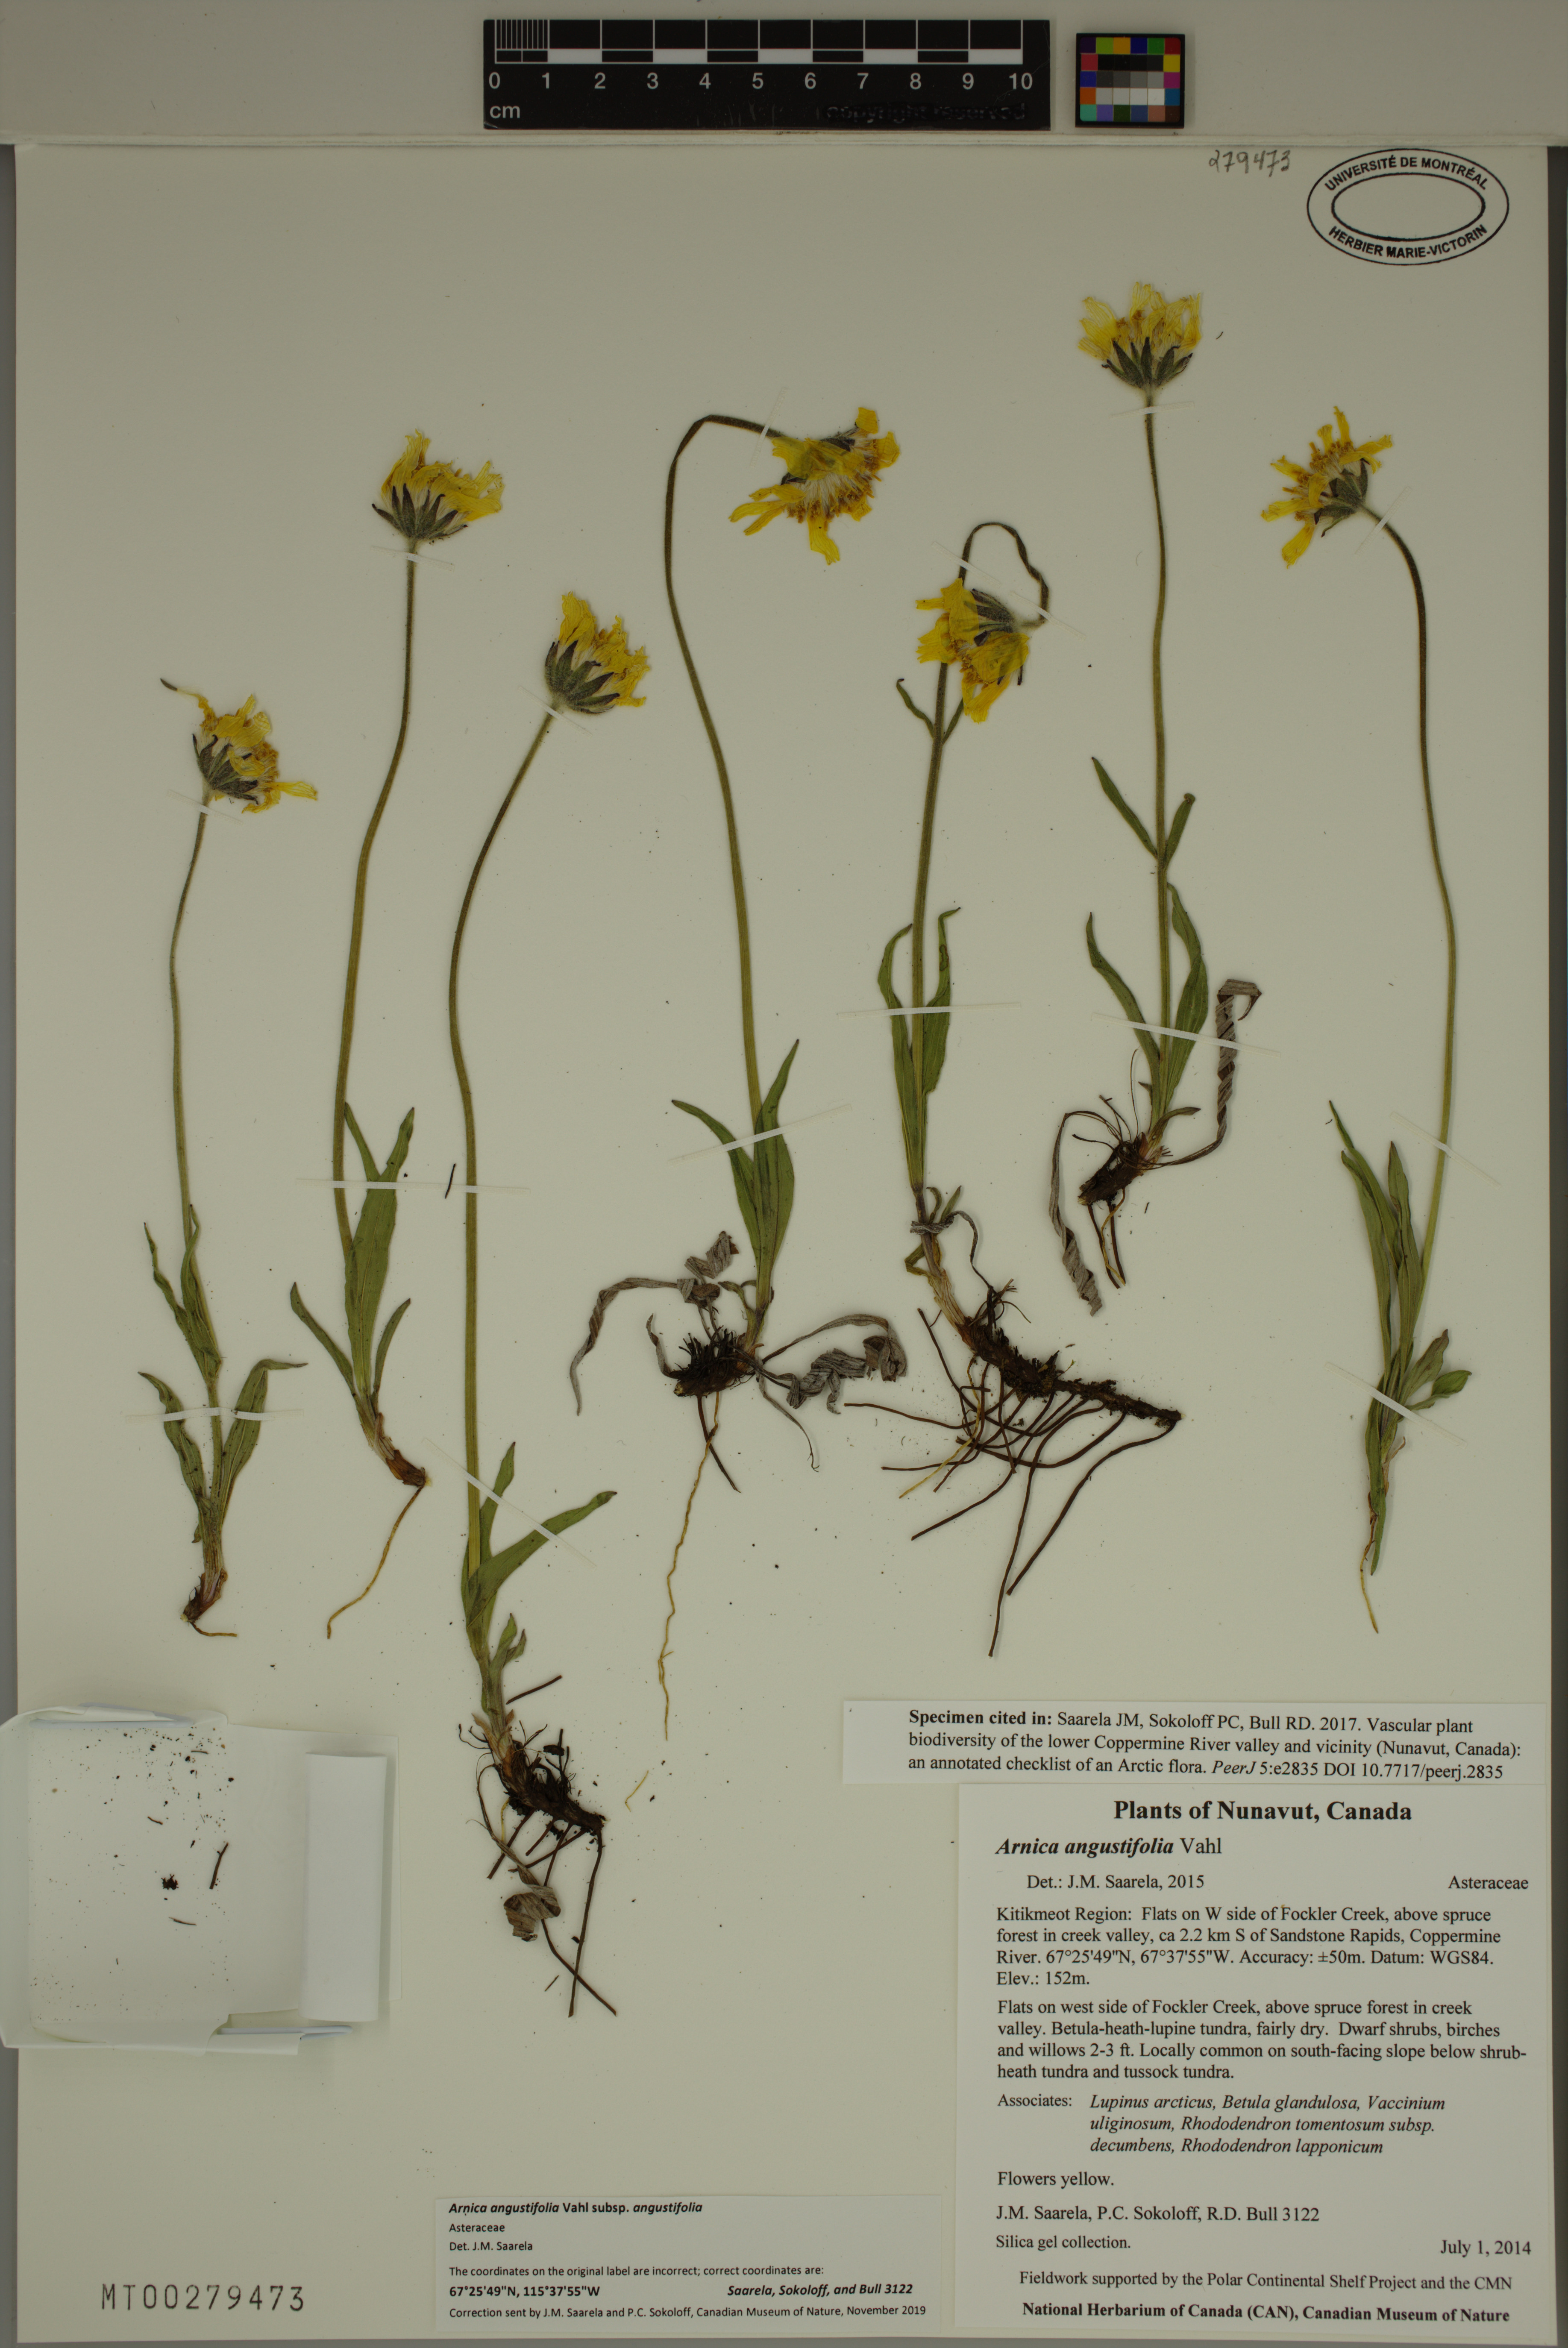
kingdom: Plantae
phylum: Tracheophyta
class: Magnoliopsida
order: Asterales
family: Asteraceae
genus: Arnica
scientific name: Arnica angustifolia
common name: Arctic arnica
